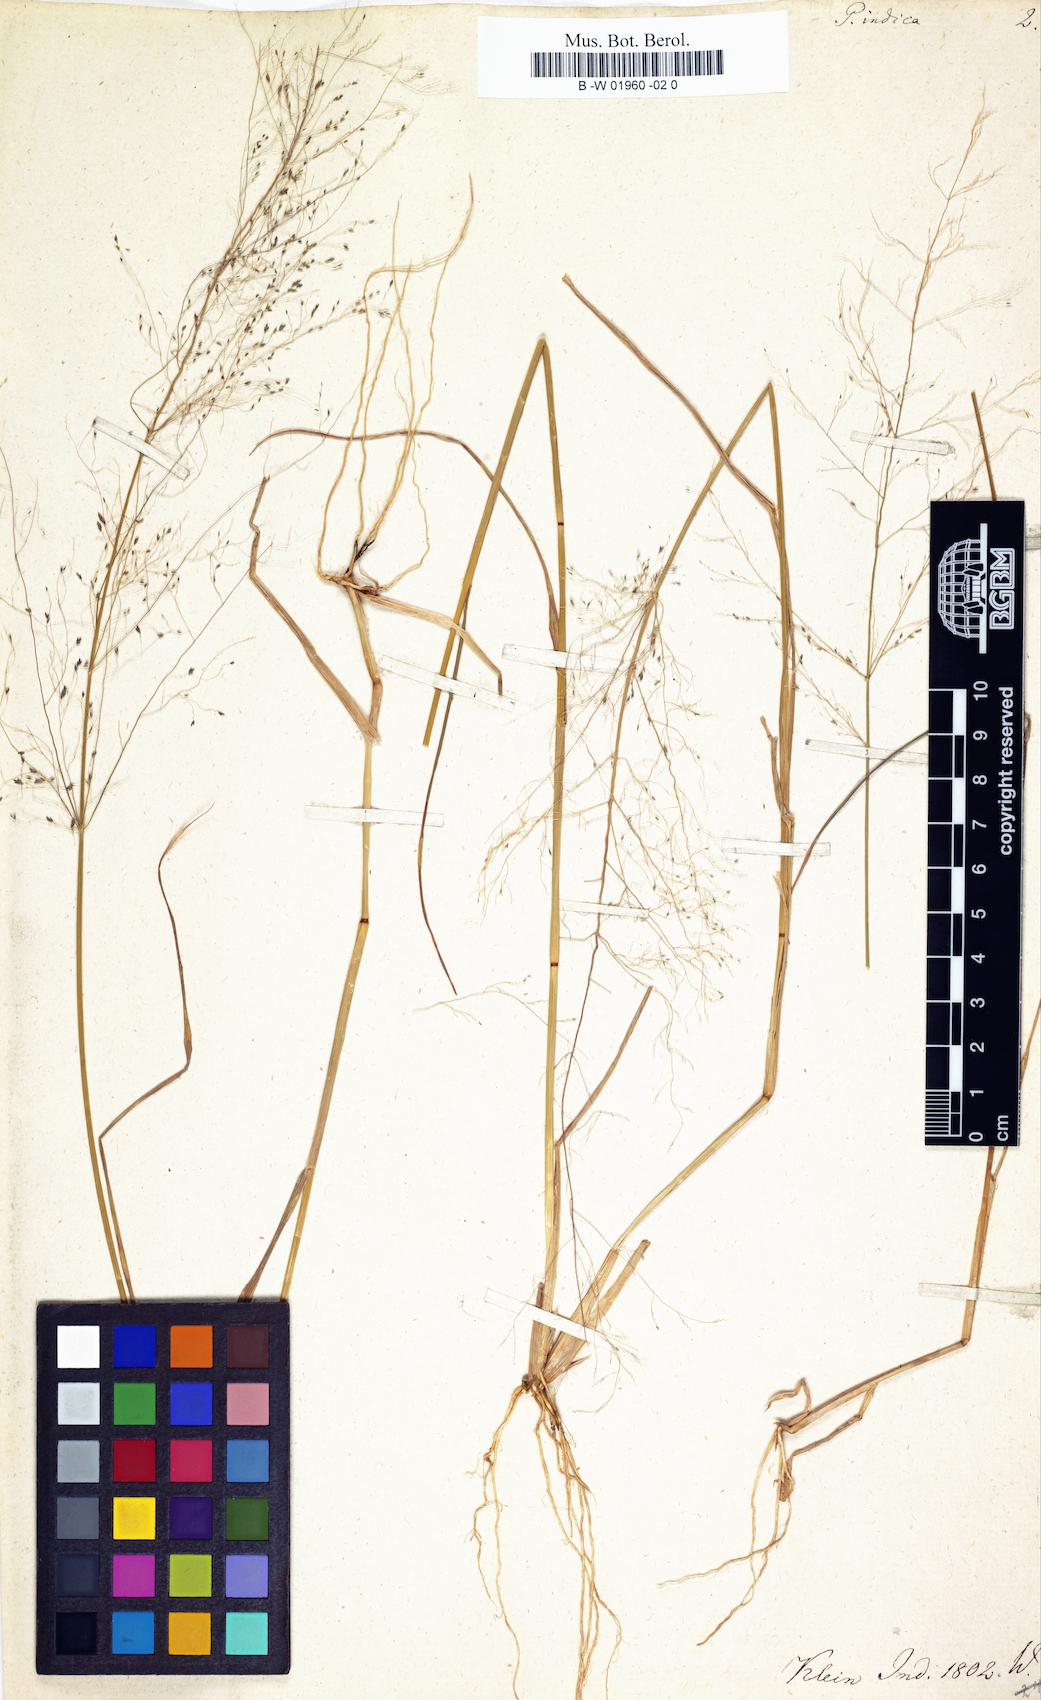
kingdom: Plantae
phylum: Tracheophyta
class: Liliopsida
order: Poales
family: Poaceae
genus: Eragrostis
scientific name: Eragrostis
